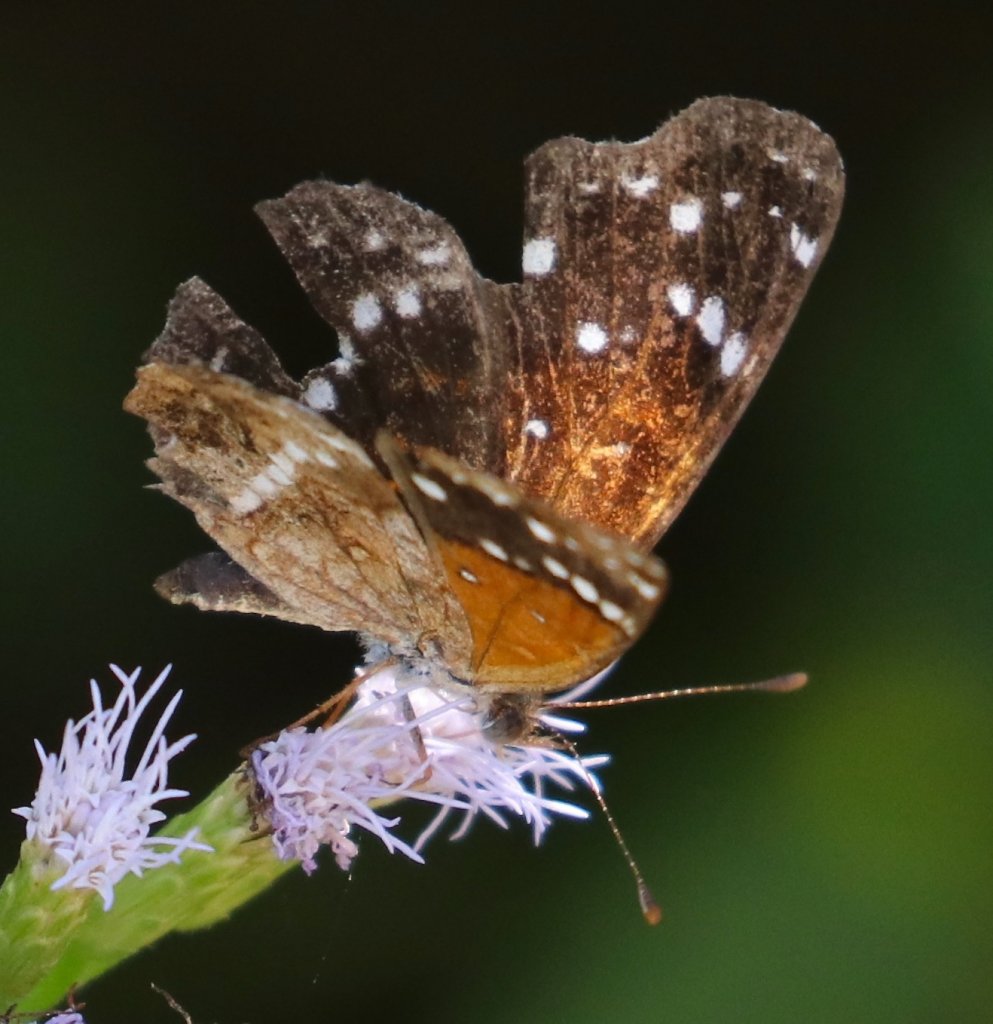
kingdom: Animalia
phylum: Arthropoda
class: Insecta
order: Lepidoptera
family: Nymphalidae
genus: Anthanassa
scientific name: Anthanassa texana
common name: Texan Crescent
